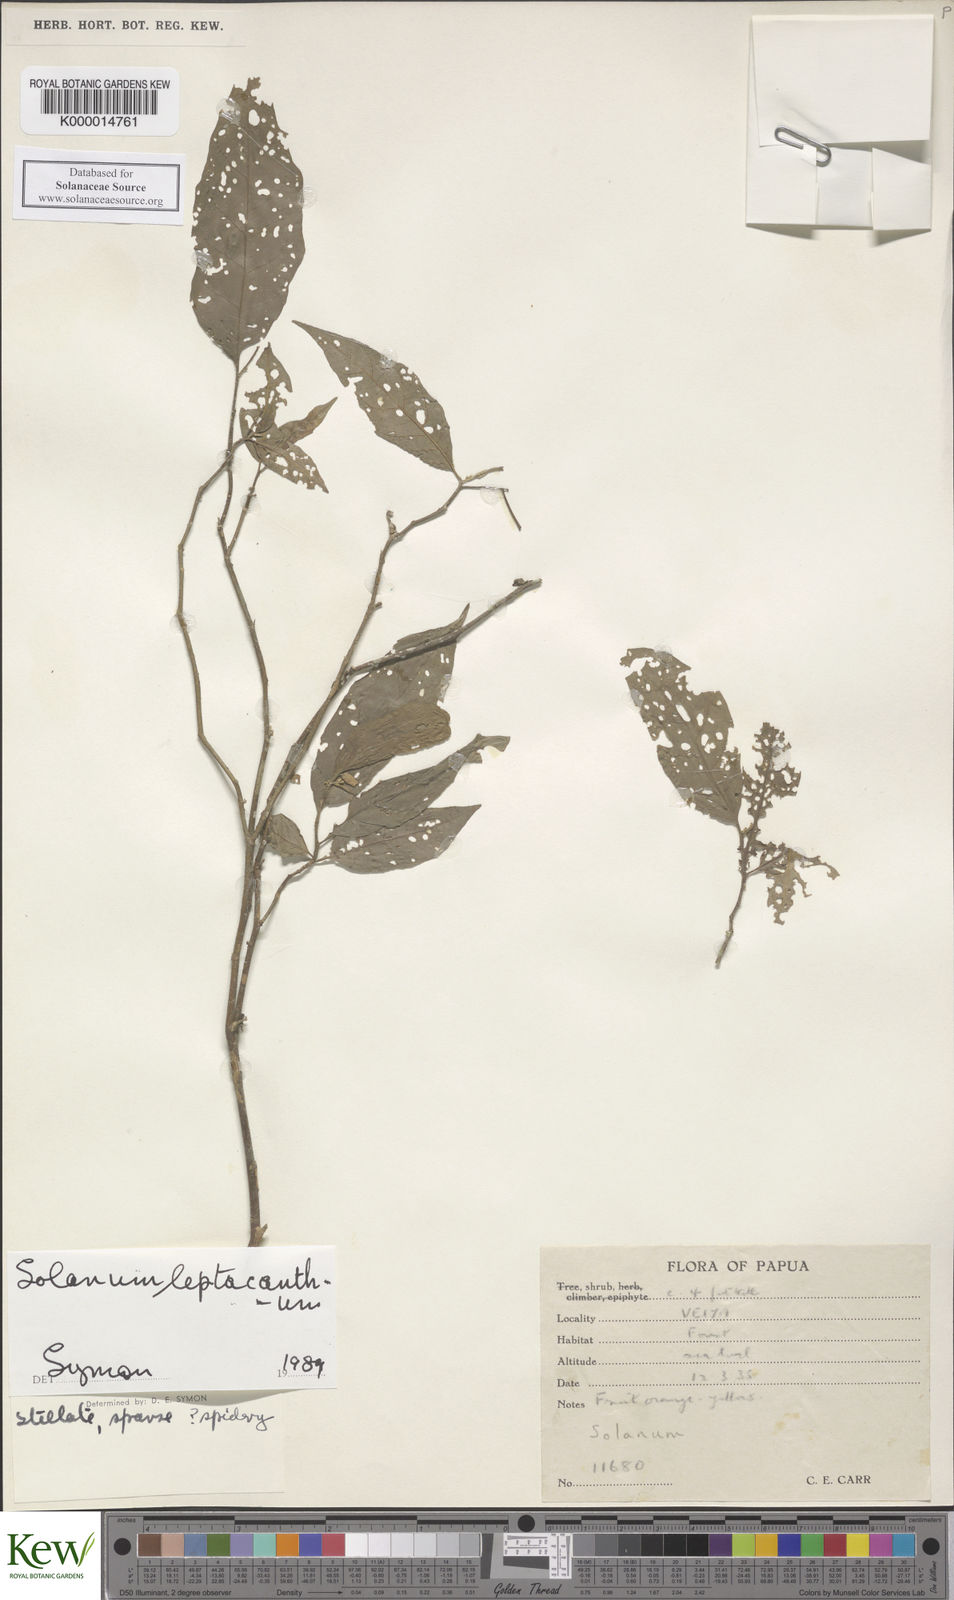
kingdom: Plantae
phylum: Tracheophyta
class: Magnoliopsida
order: Solanales
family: Solanaceae
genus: Solanum
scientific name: Solanum leptacanthum
